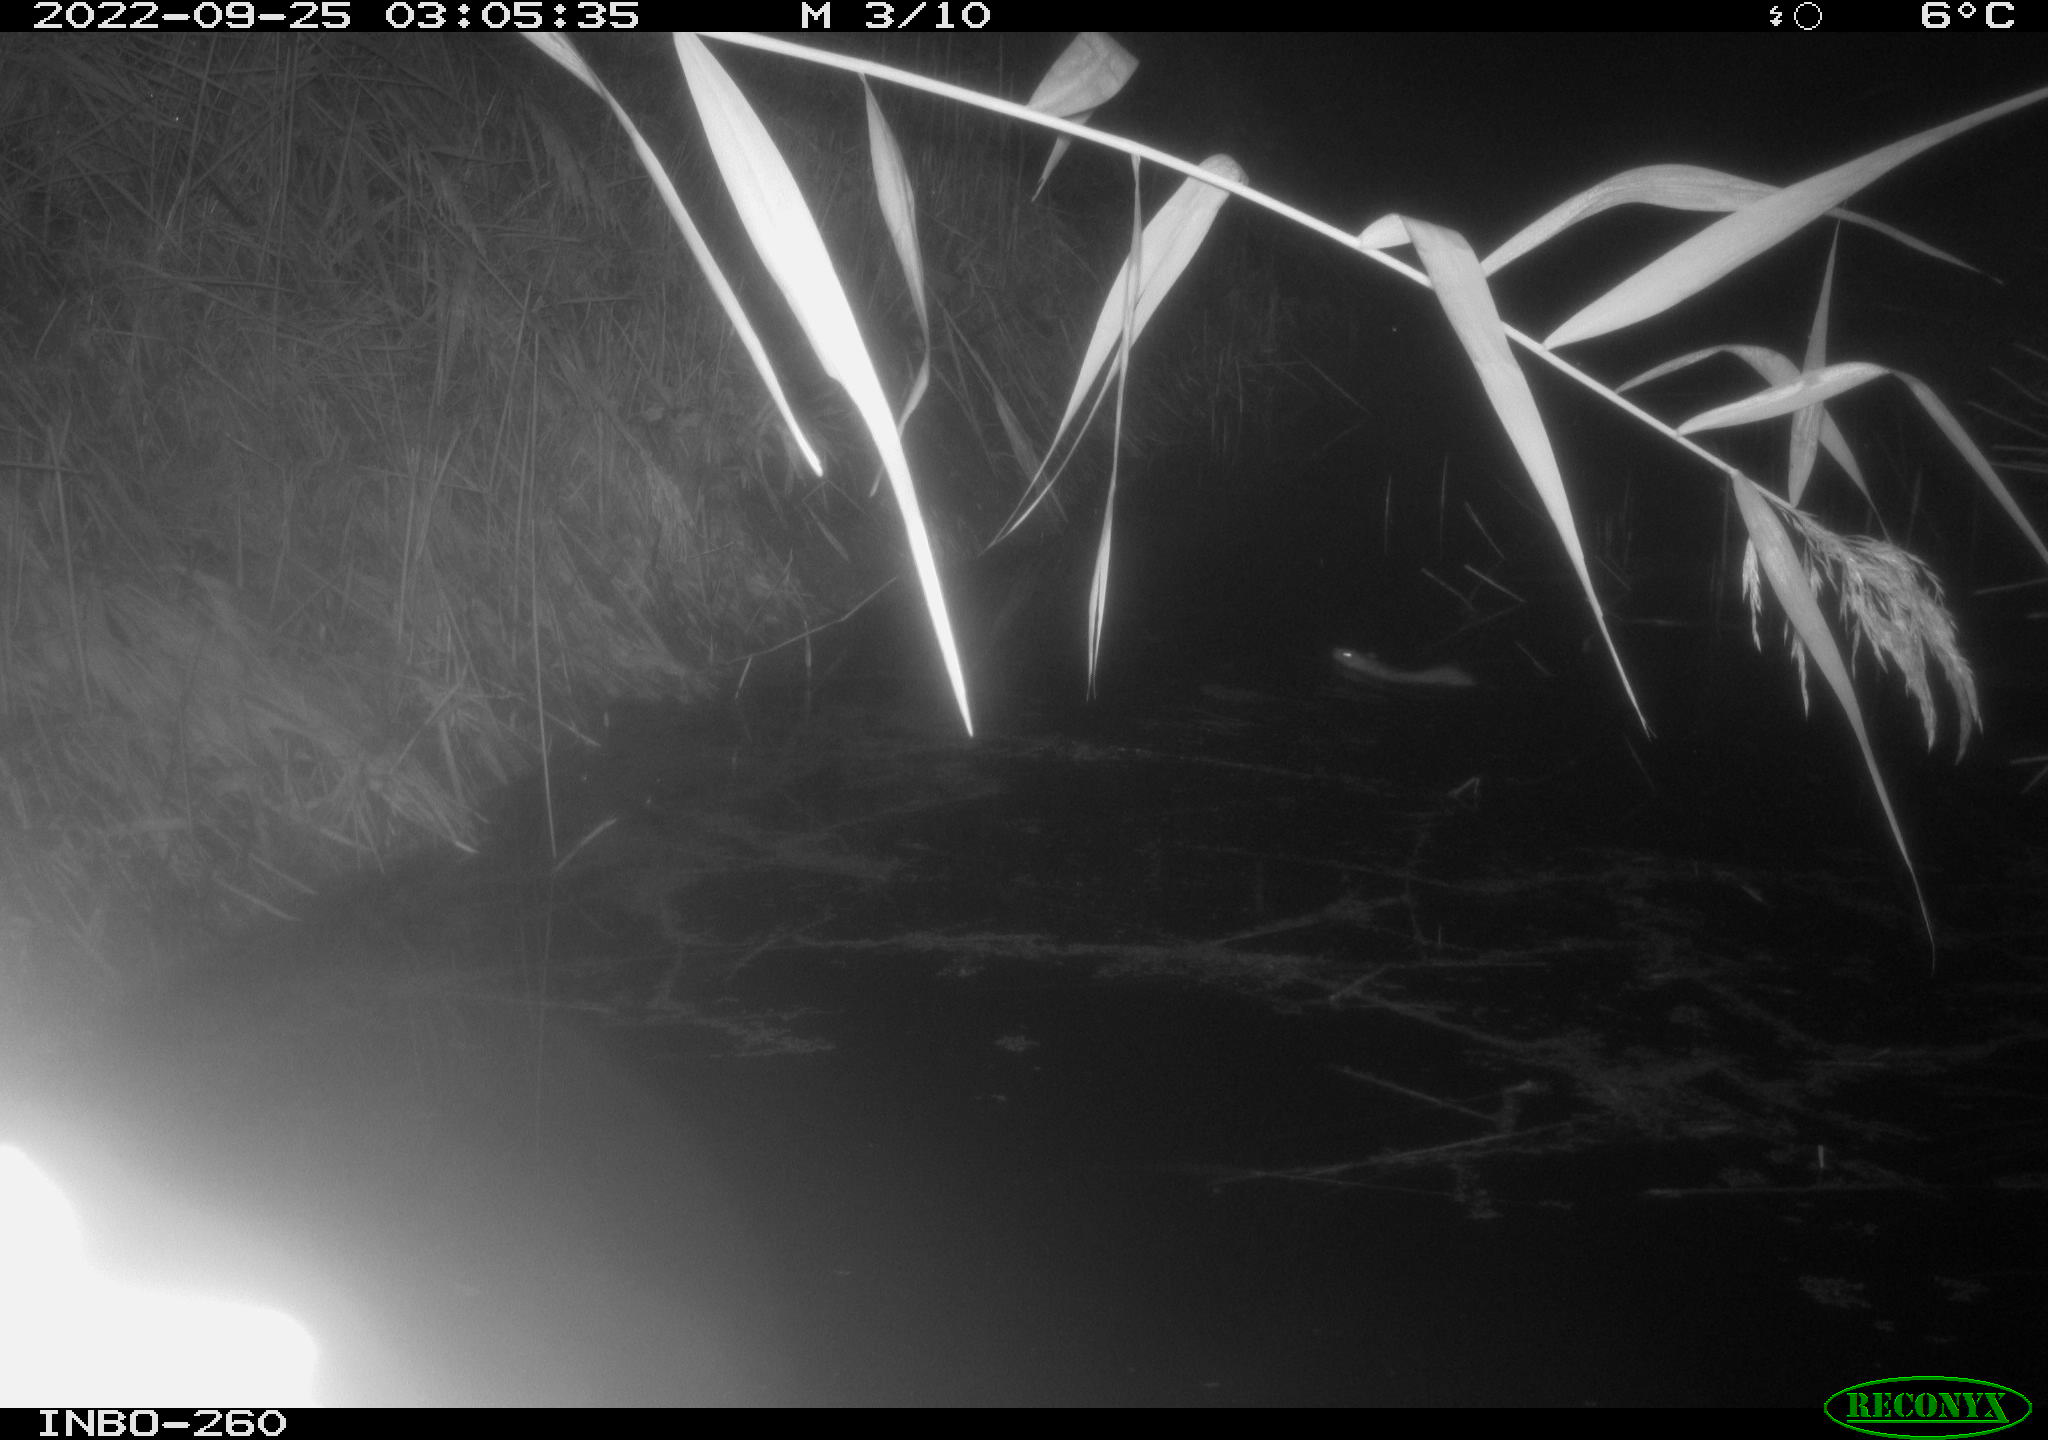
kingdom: Animalia
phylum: Chordata
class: Mammalia
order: Rodentia
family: Muridae
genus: Rattus
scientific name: Rattus norvegicus
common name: Brown rat
